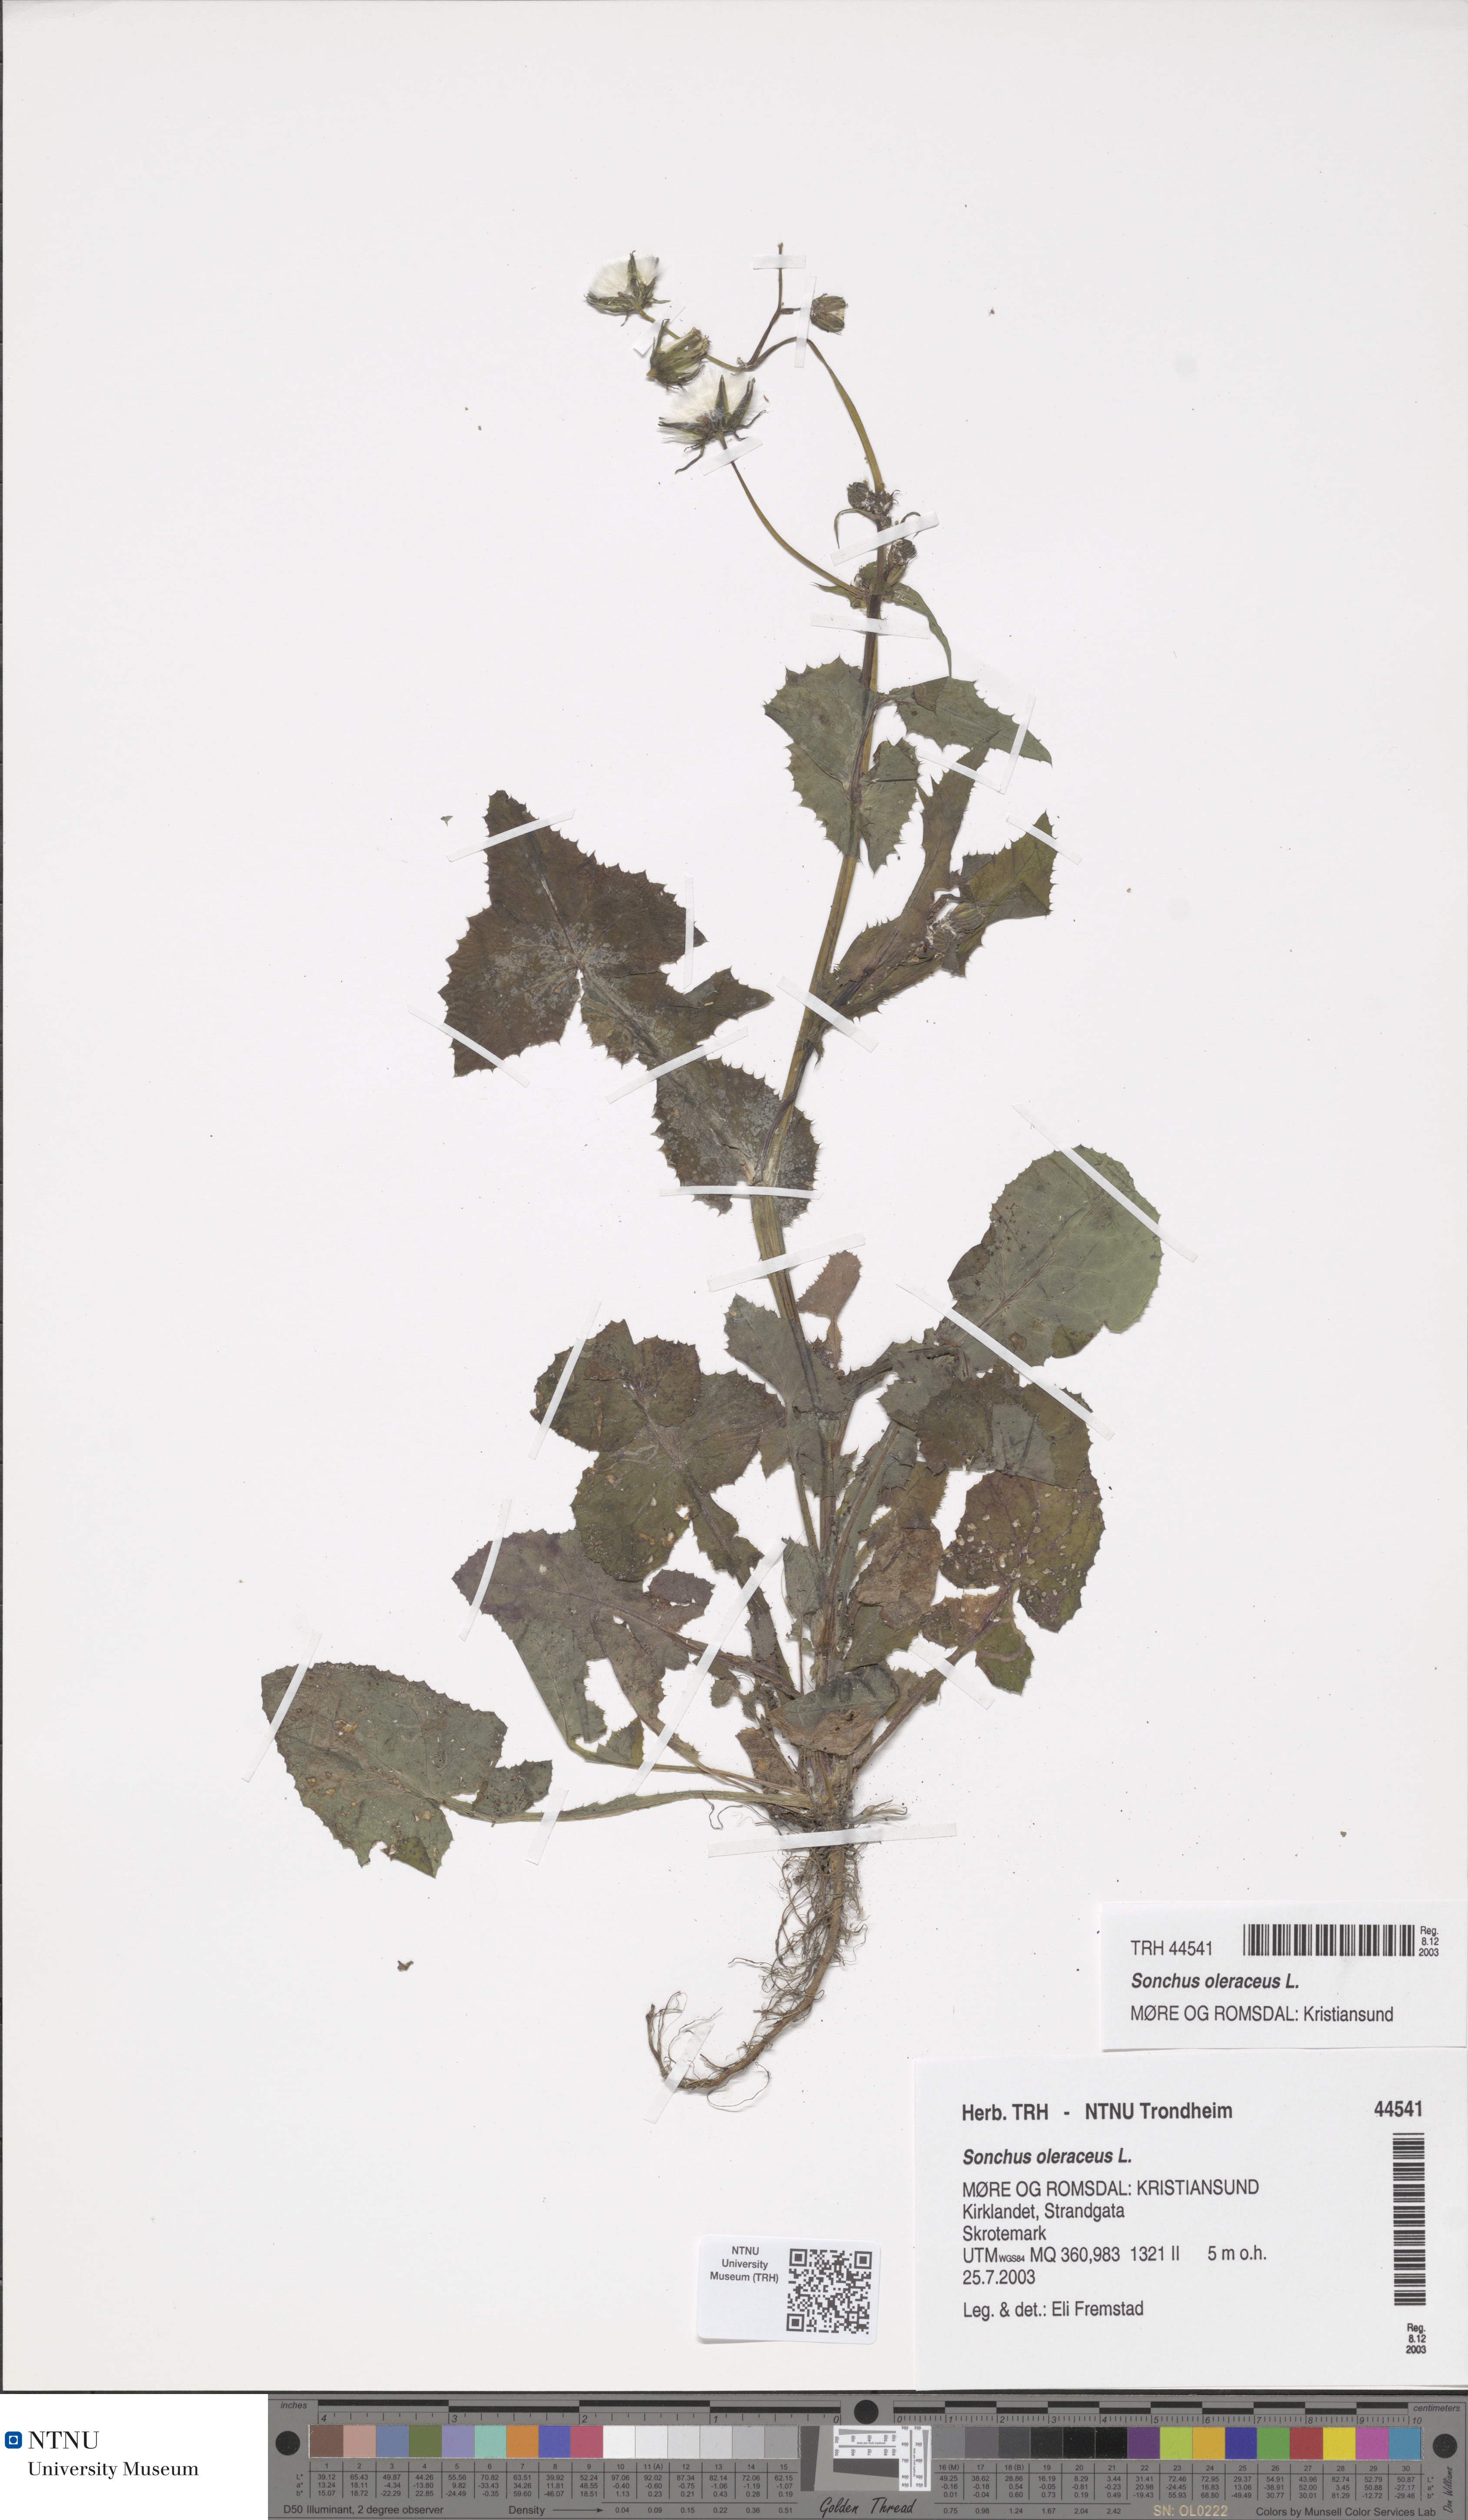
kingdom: Plantae
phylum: Tracheophyta
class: Magnoliopsida
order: Asterales
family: Asteraceae
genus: Sonchus
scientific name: Sonchus oleraceus
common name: Common sowthistle
